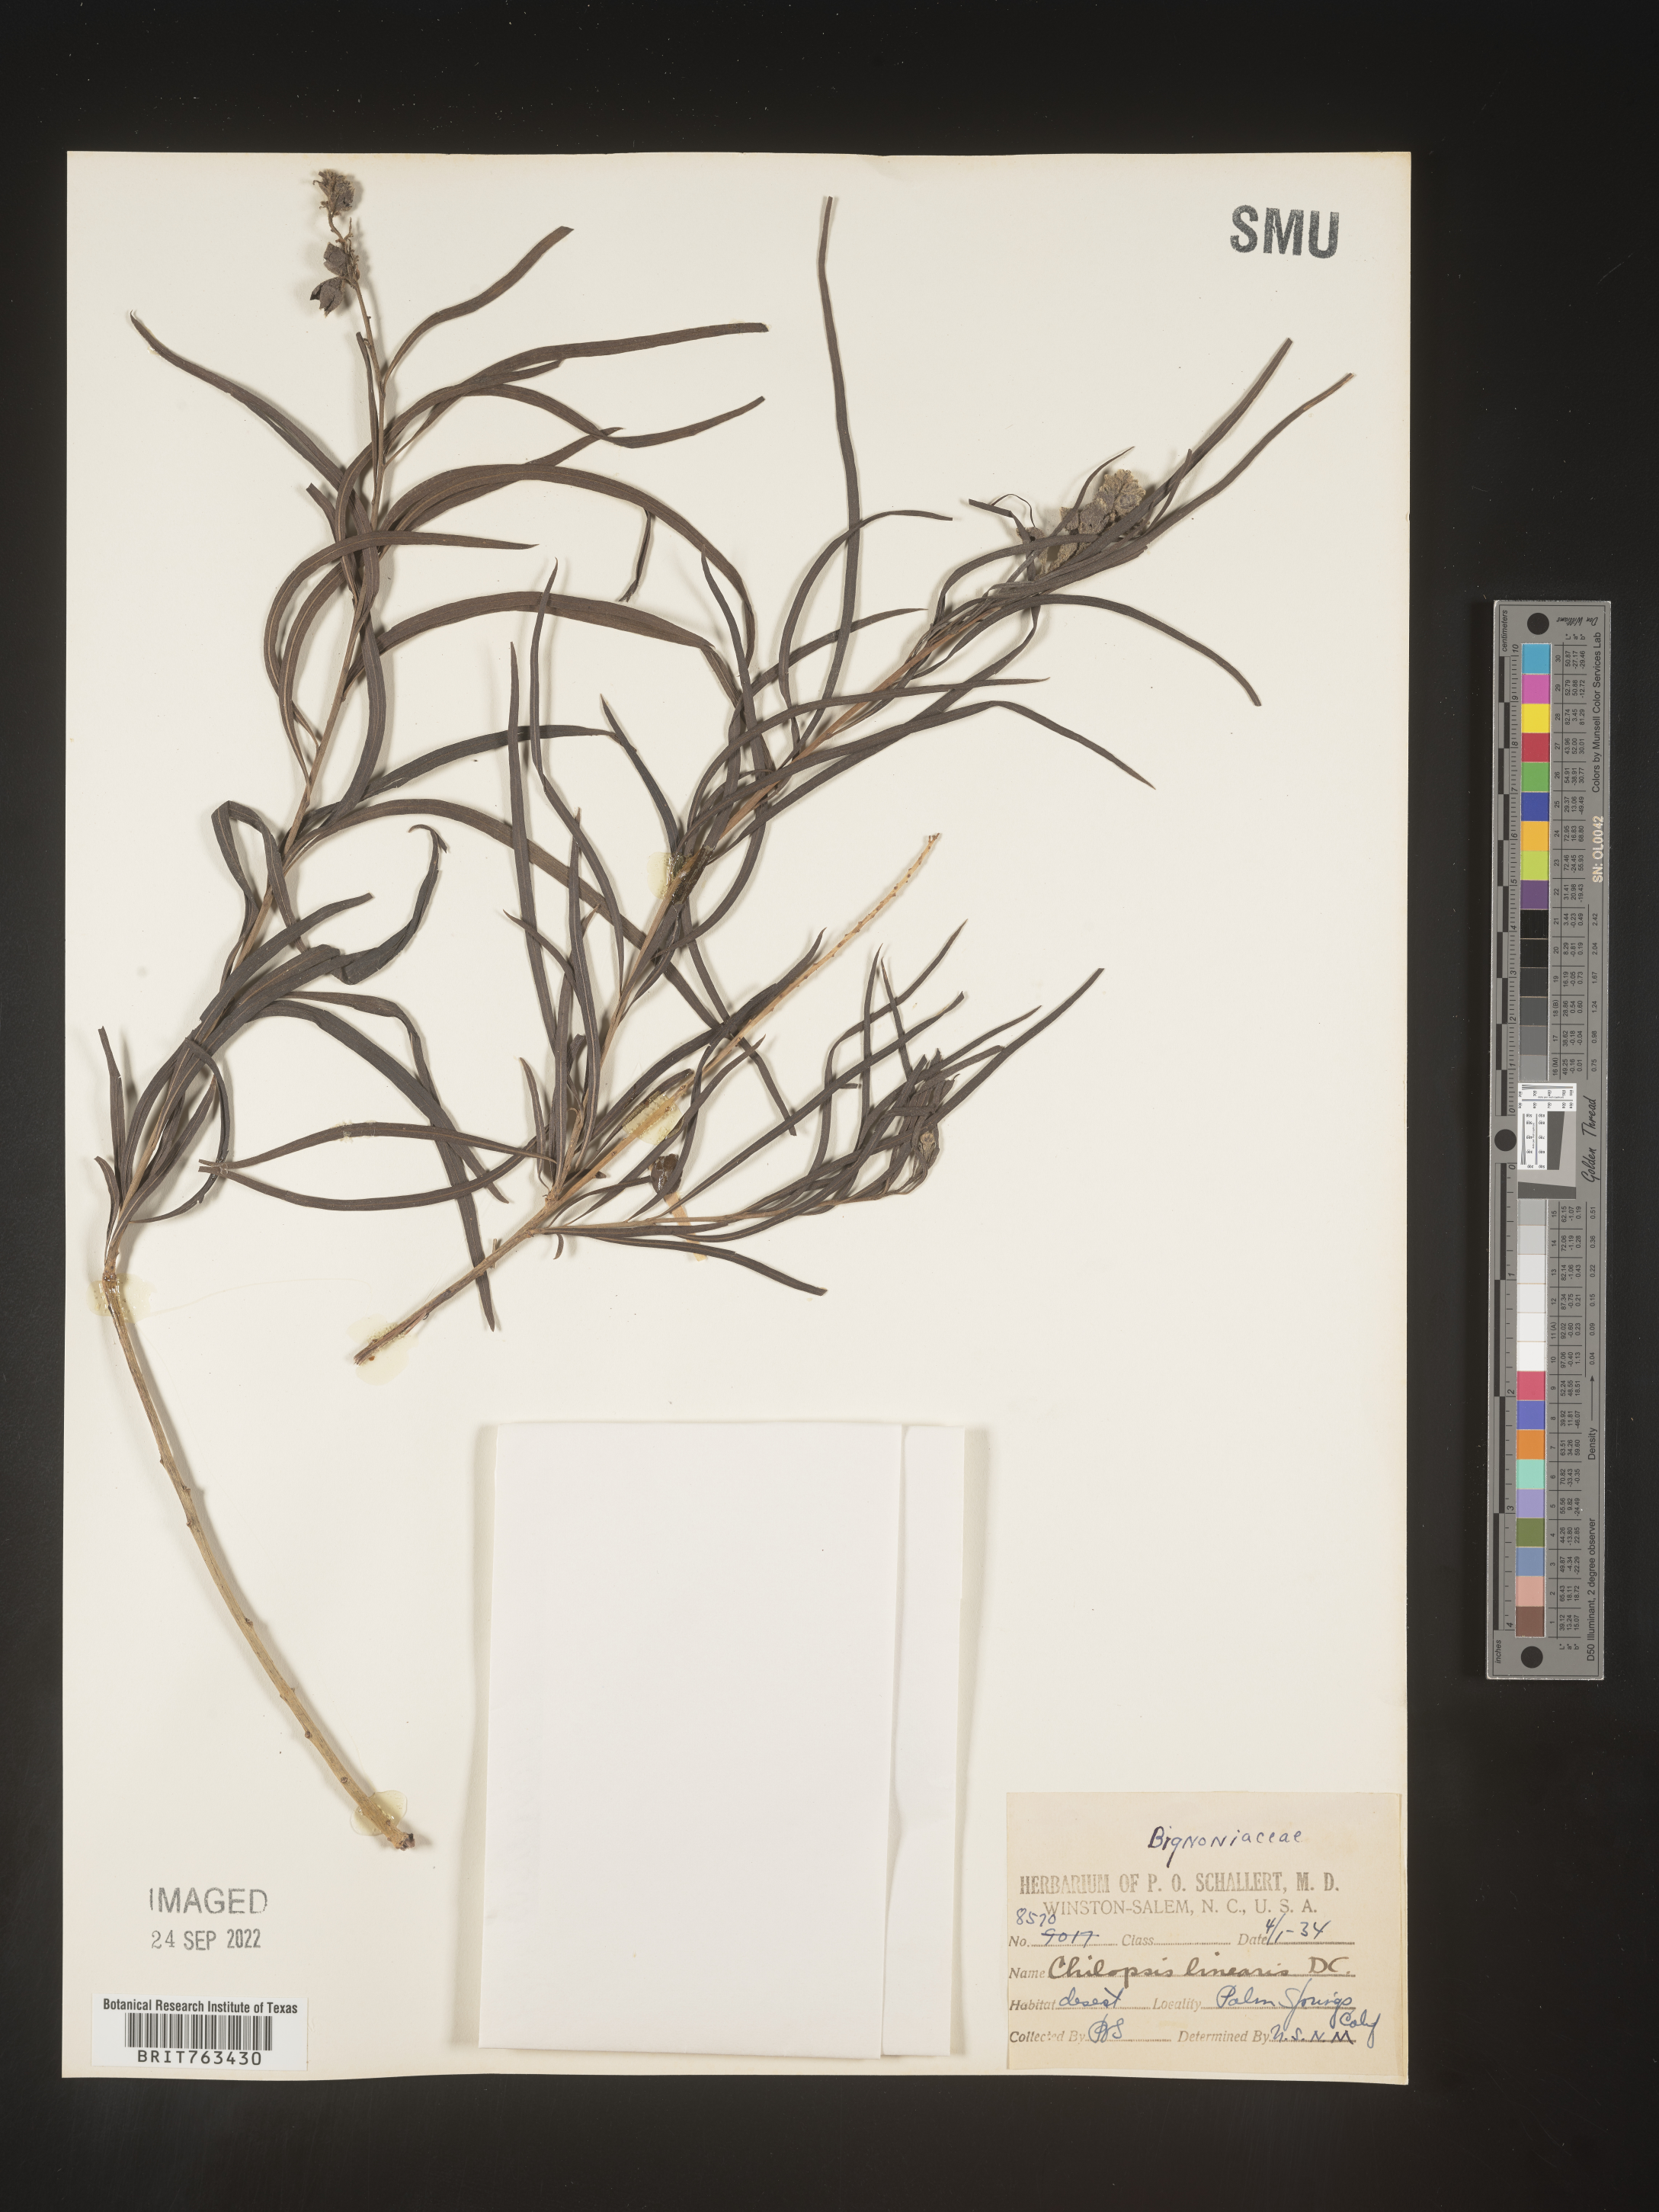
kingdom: Plantae
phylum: Tracheophyta
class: Magnoliopsida
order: Lamiales
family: Bignoniaceae
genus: Chilopsis
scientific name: Chilopsis linearis
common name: Desert-willow
